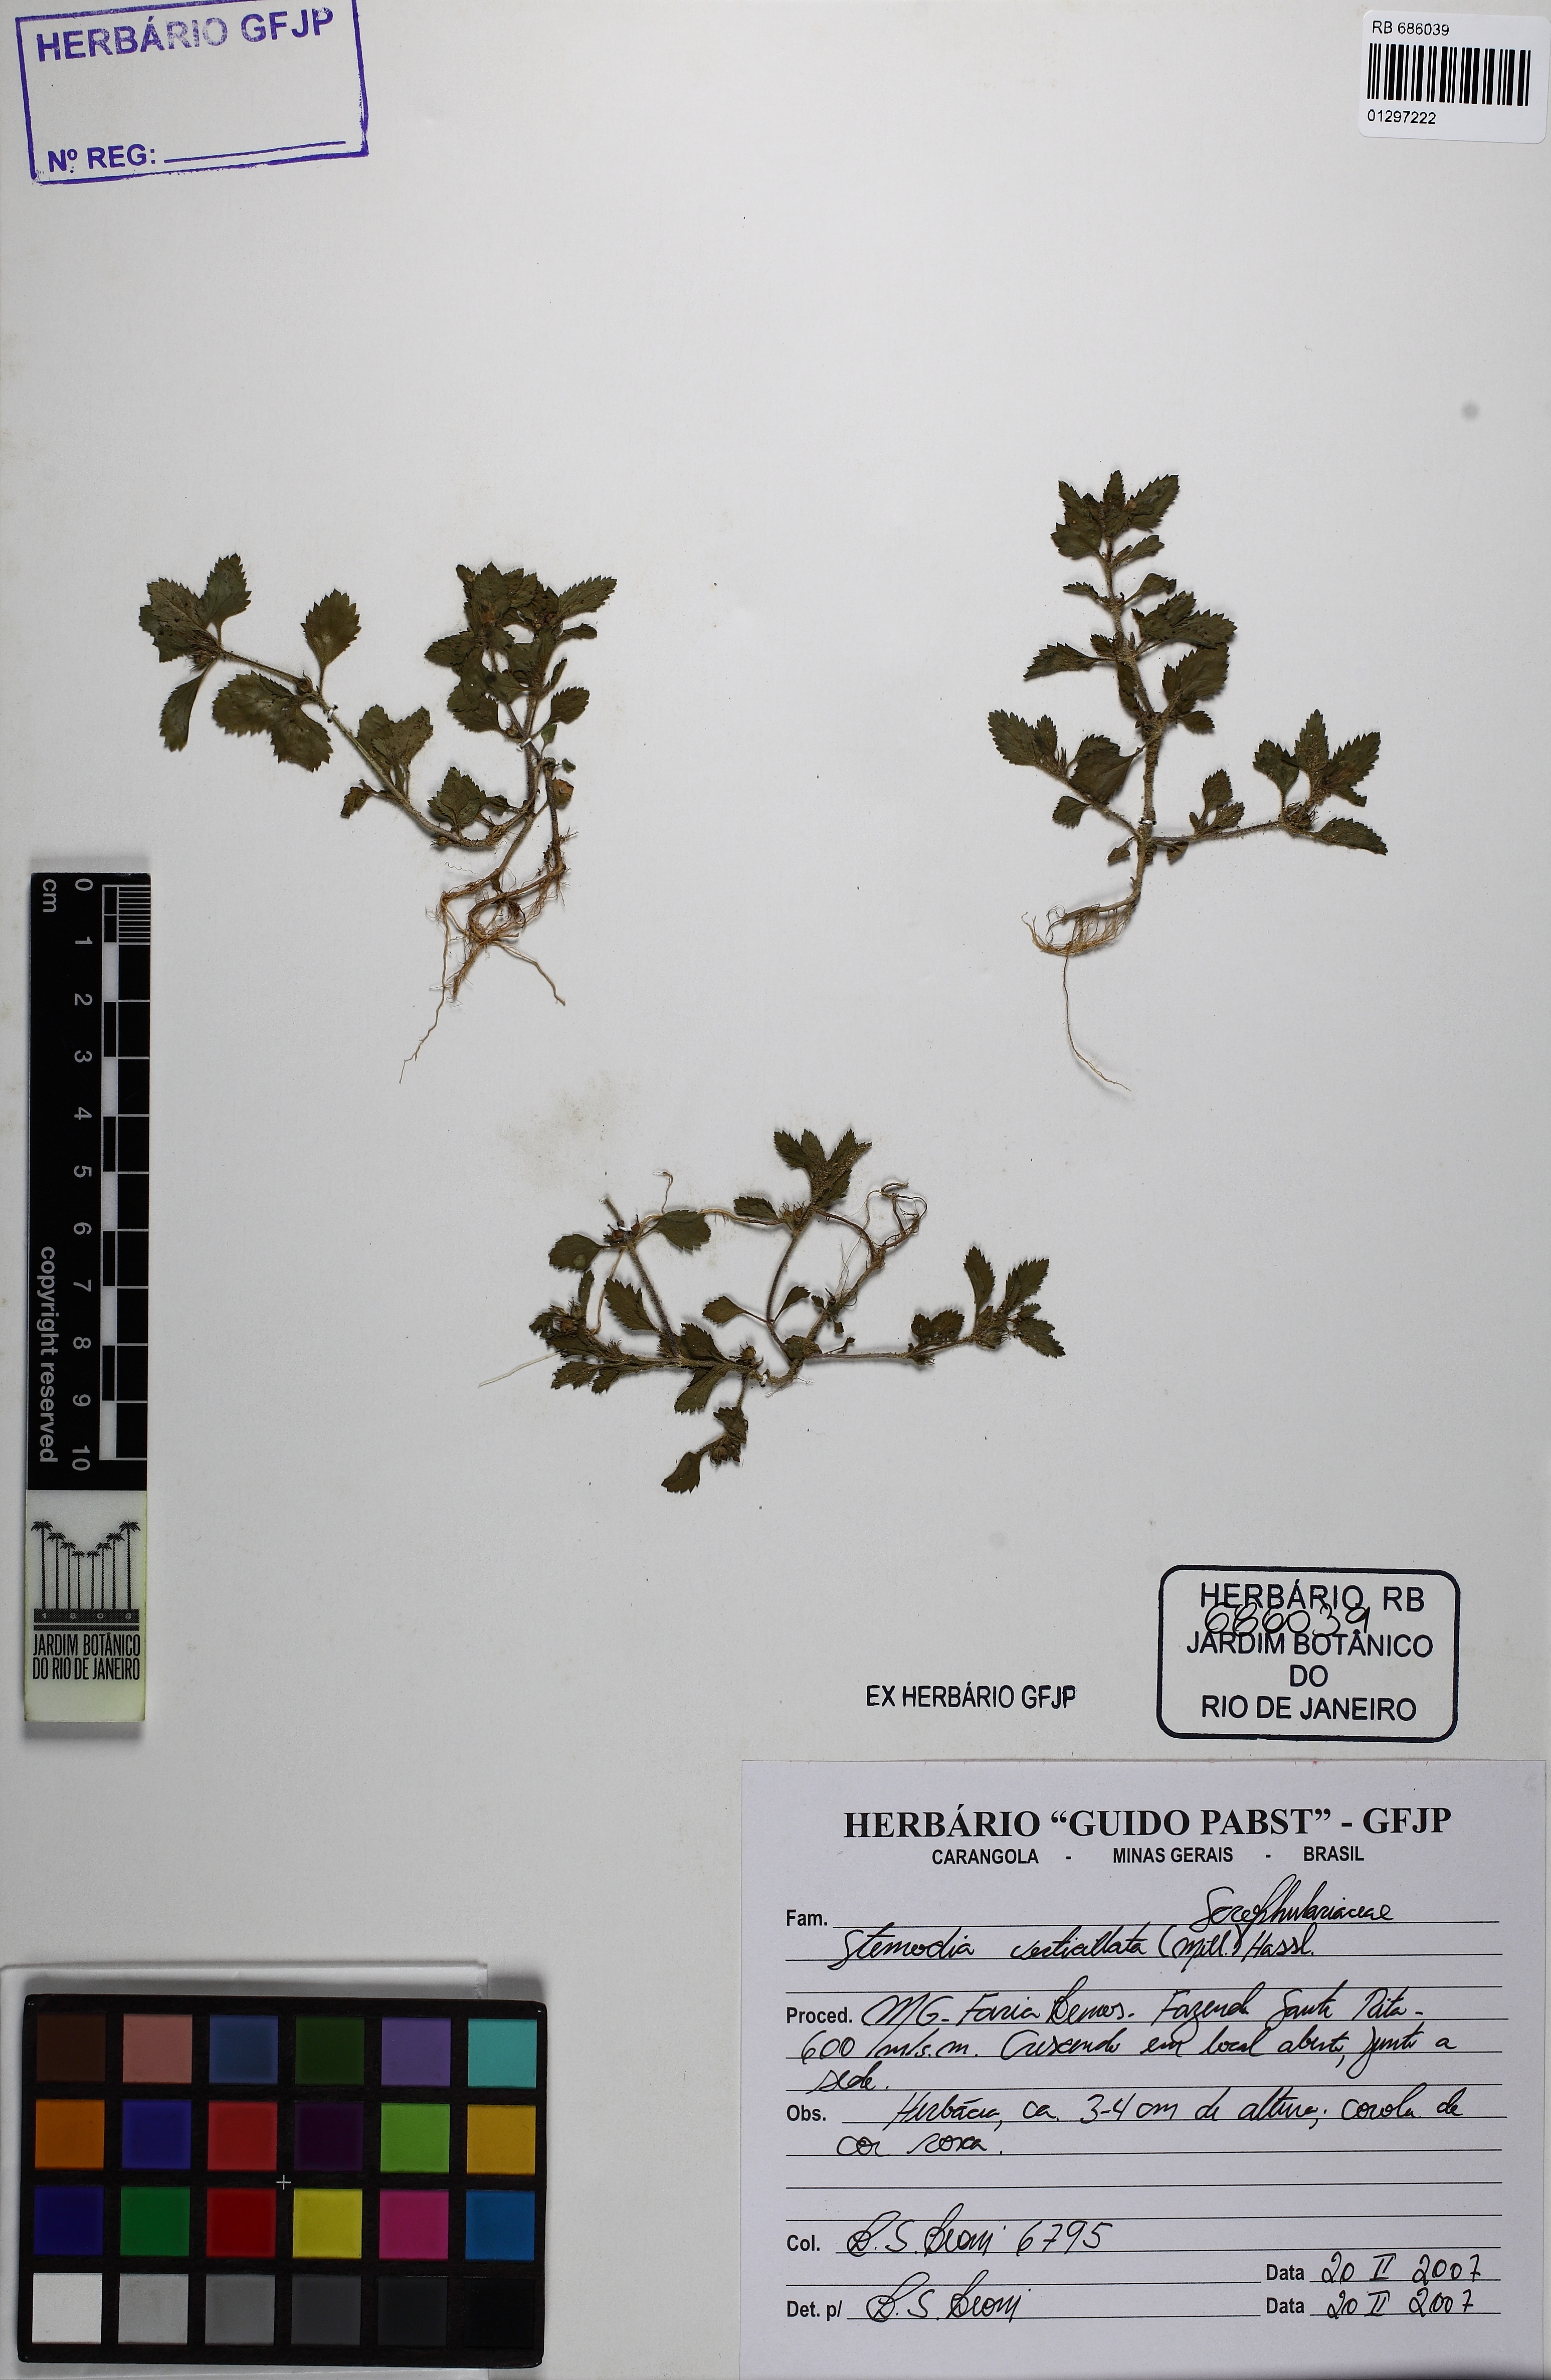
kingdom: Plantae
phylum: Tracheophyta
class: Magnoliopsida
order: Lamiales
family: Plantaginaceae
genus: Stemodia
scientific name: Stemodia verticillata
